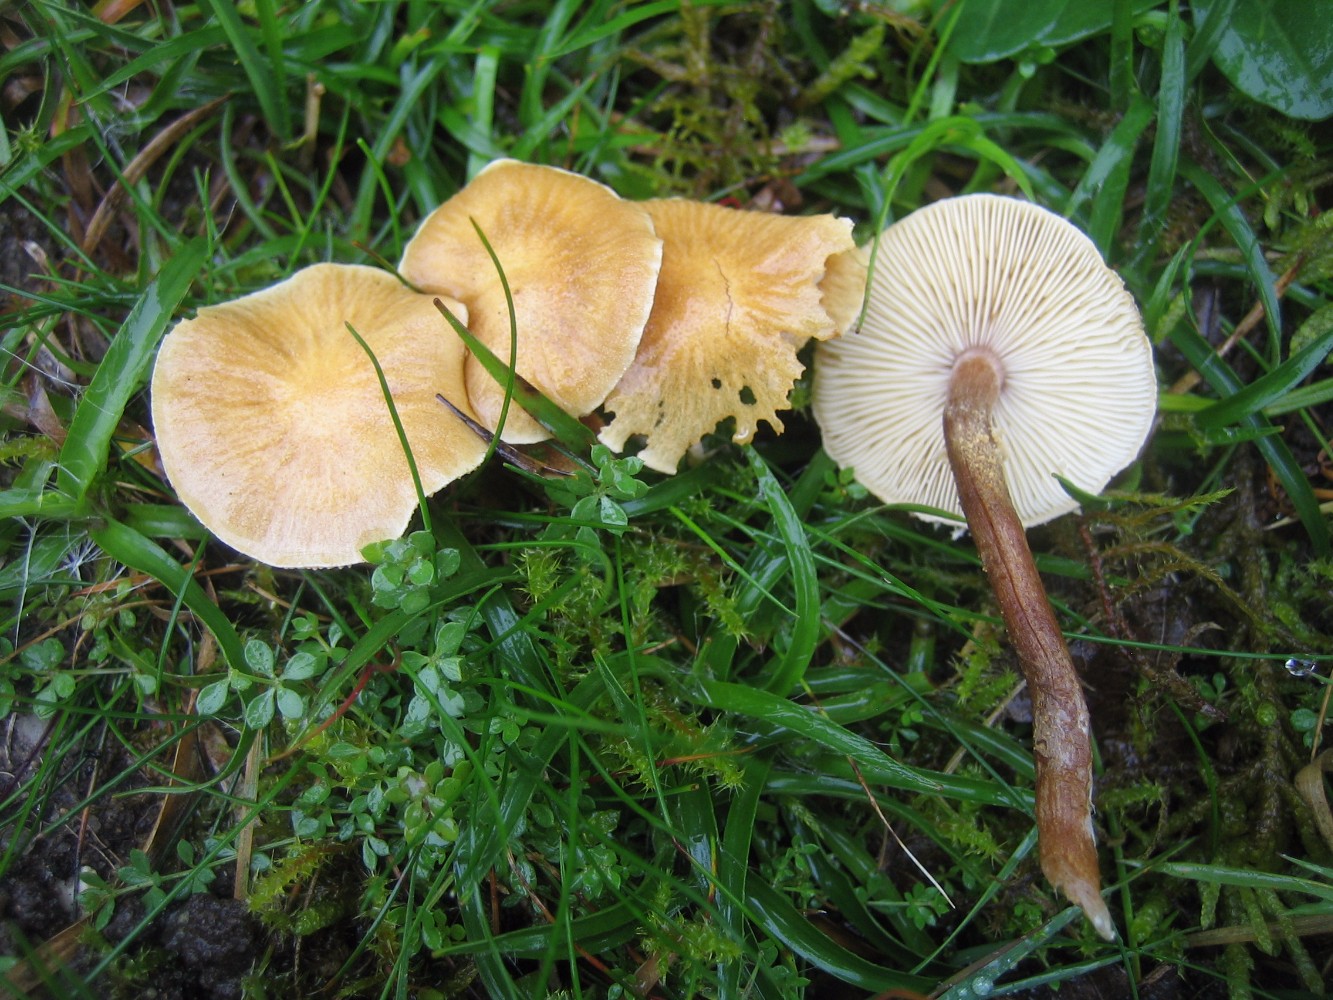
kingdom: Fungi
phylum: Basidiomycota
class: Agaricomycetes
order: Agaricales
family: Tricholomataceae
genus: Cystoderma
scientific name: Cystoderma amianthinum
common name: okkergul grynhat
